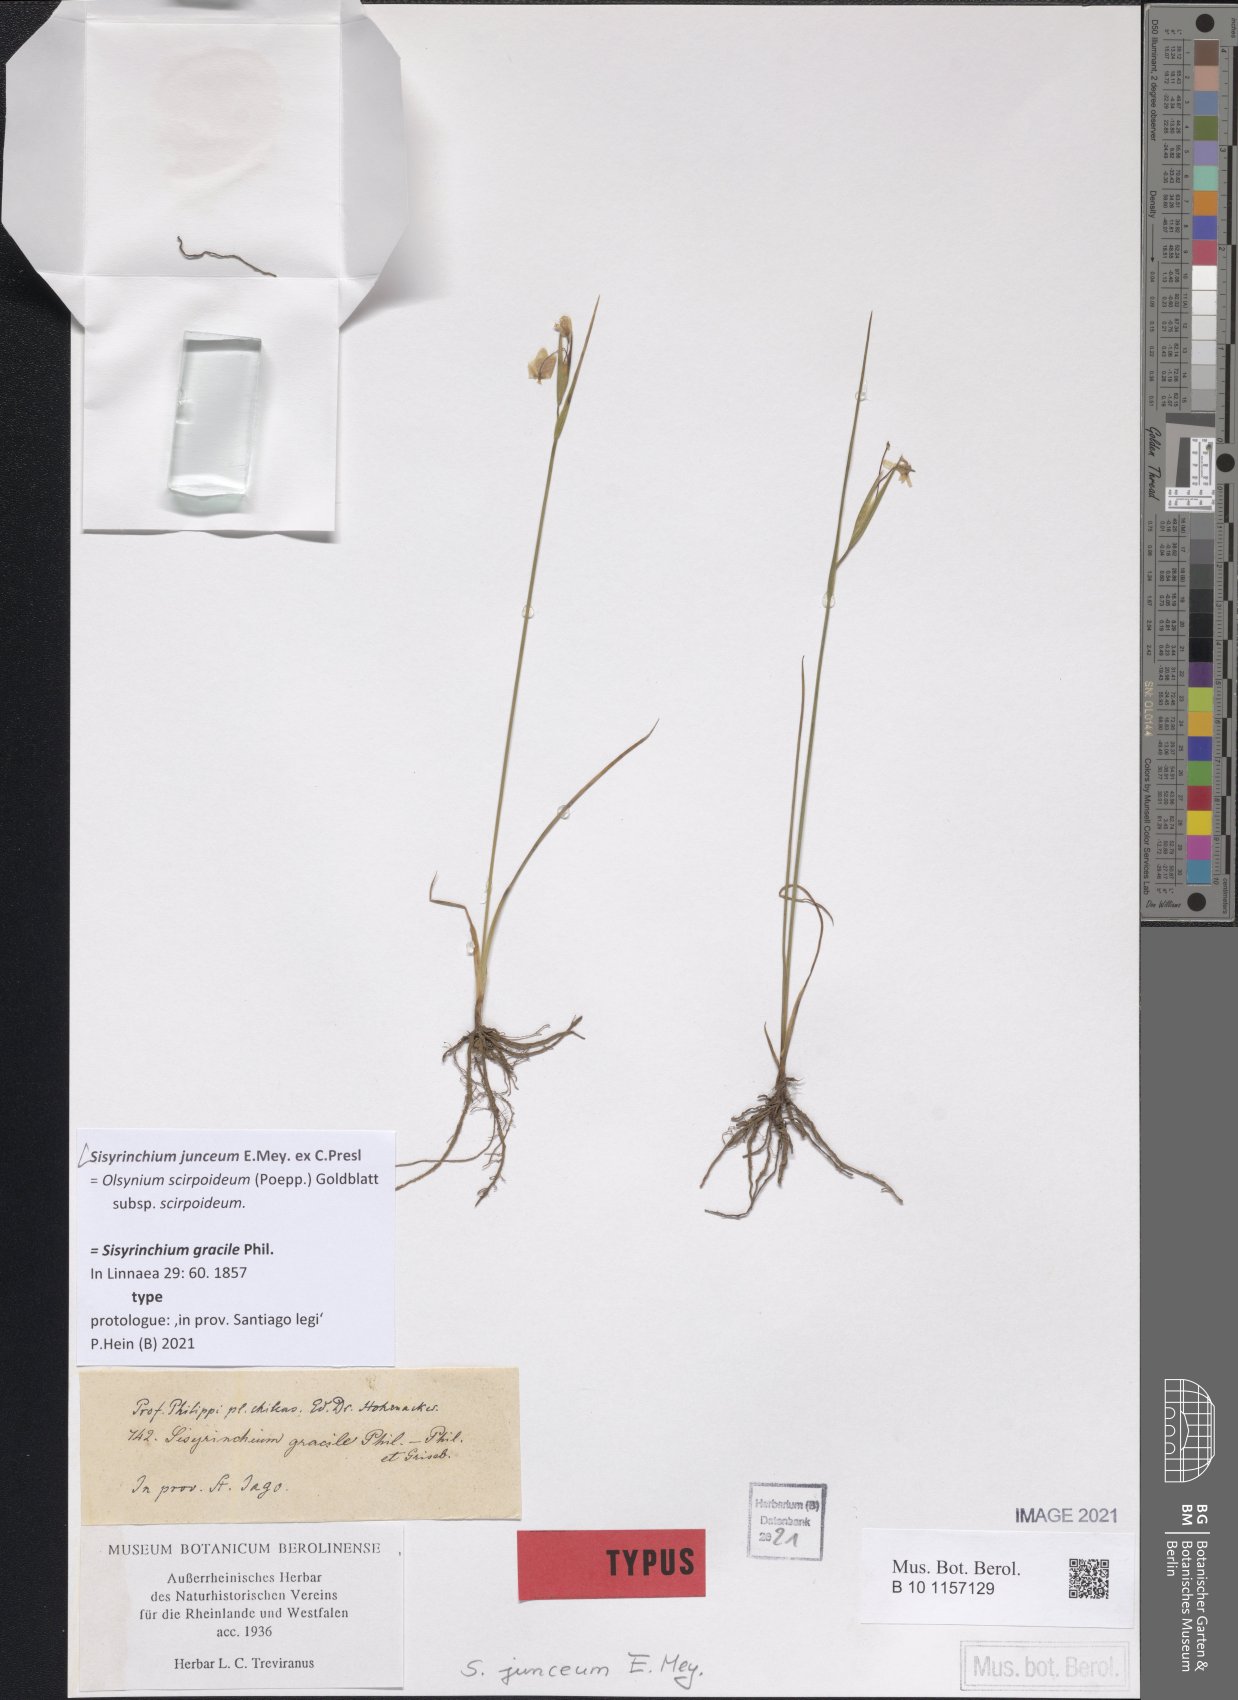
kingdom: Plantae
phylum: Tracheophyta
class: Liliopsida
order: Asparagales
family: Iridaceae
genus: Olsynium
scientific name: Olsynium junceum
